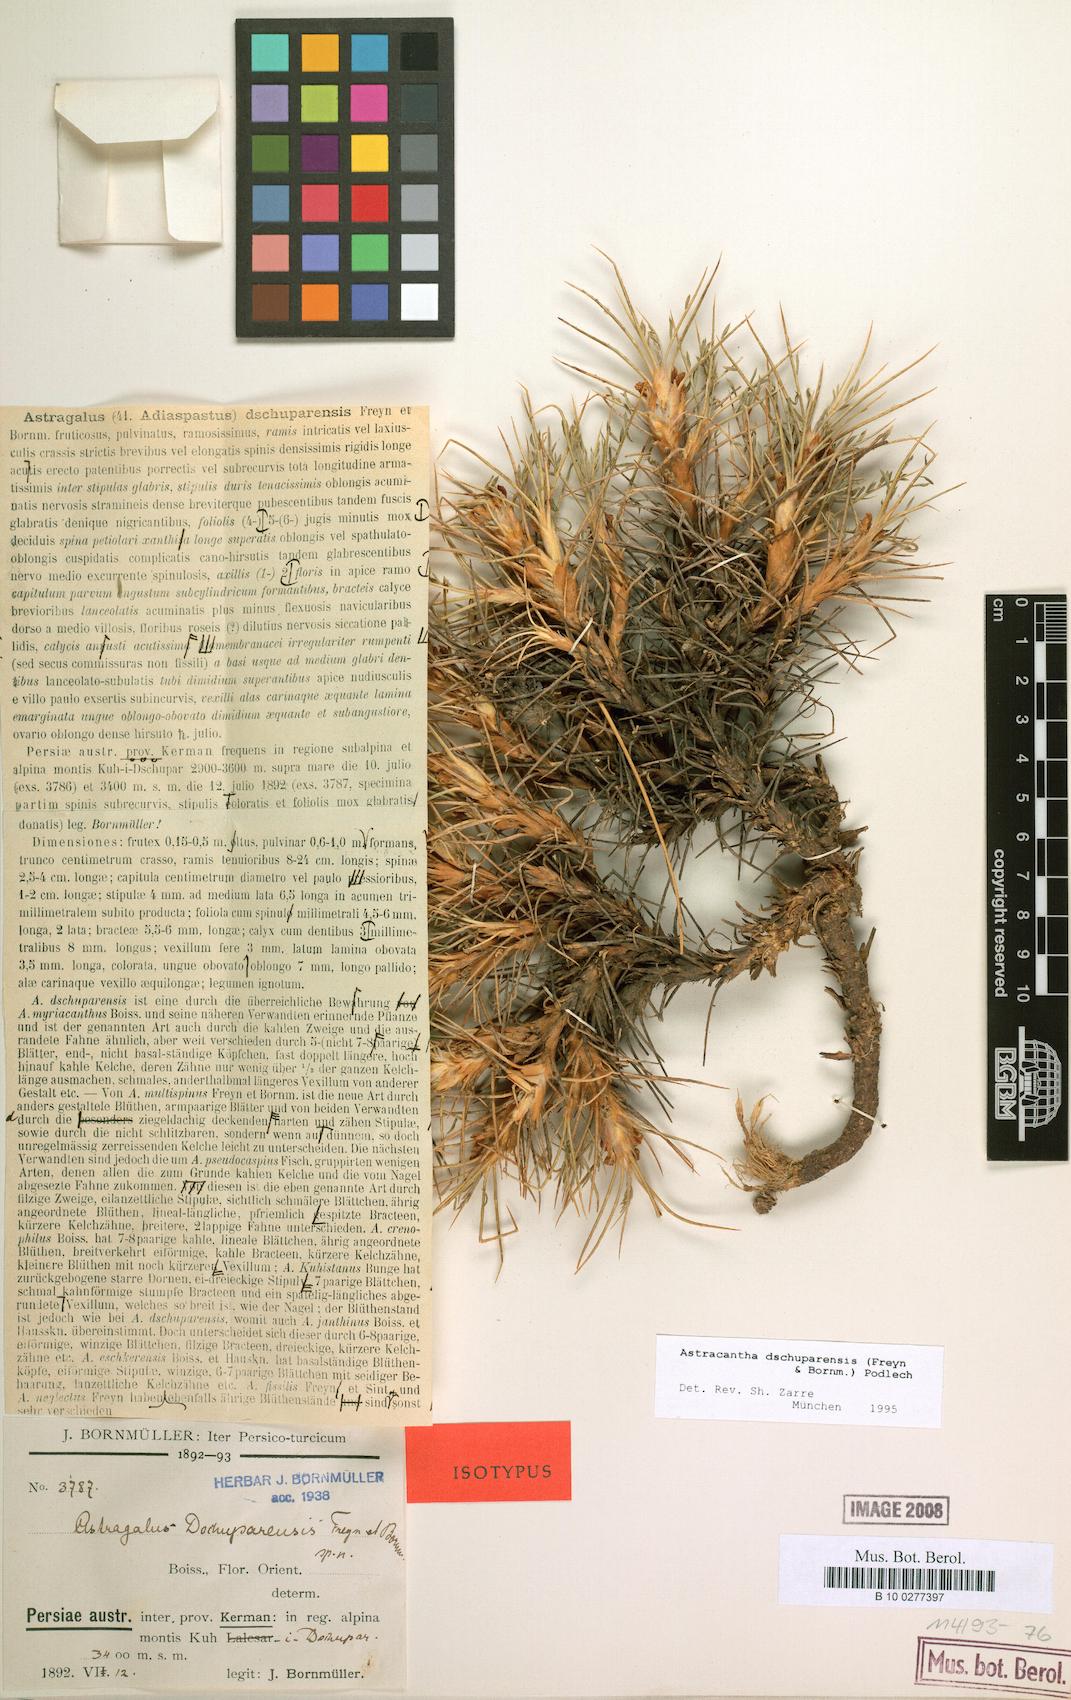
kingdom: Plantae
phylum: Tracheophyta
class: Magnoliopsida
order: Fabales
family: Fabaceae
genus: Astragalus
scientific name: Astragalus dschuparensis
